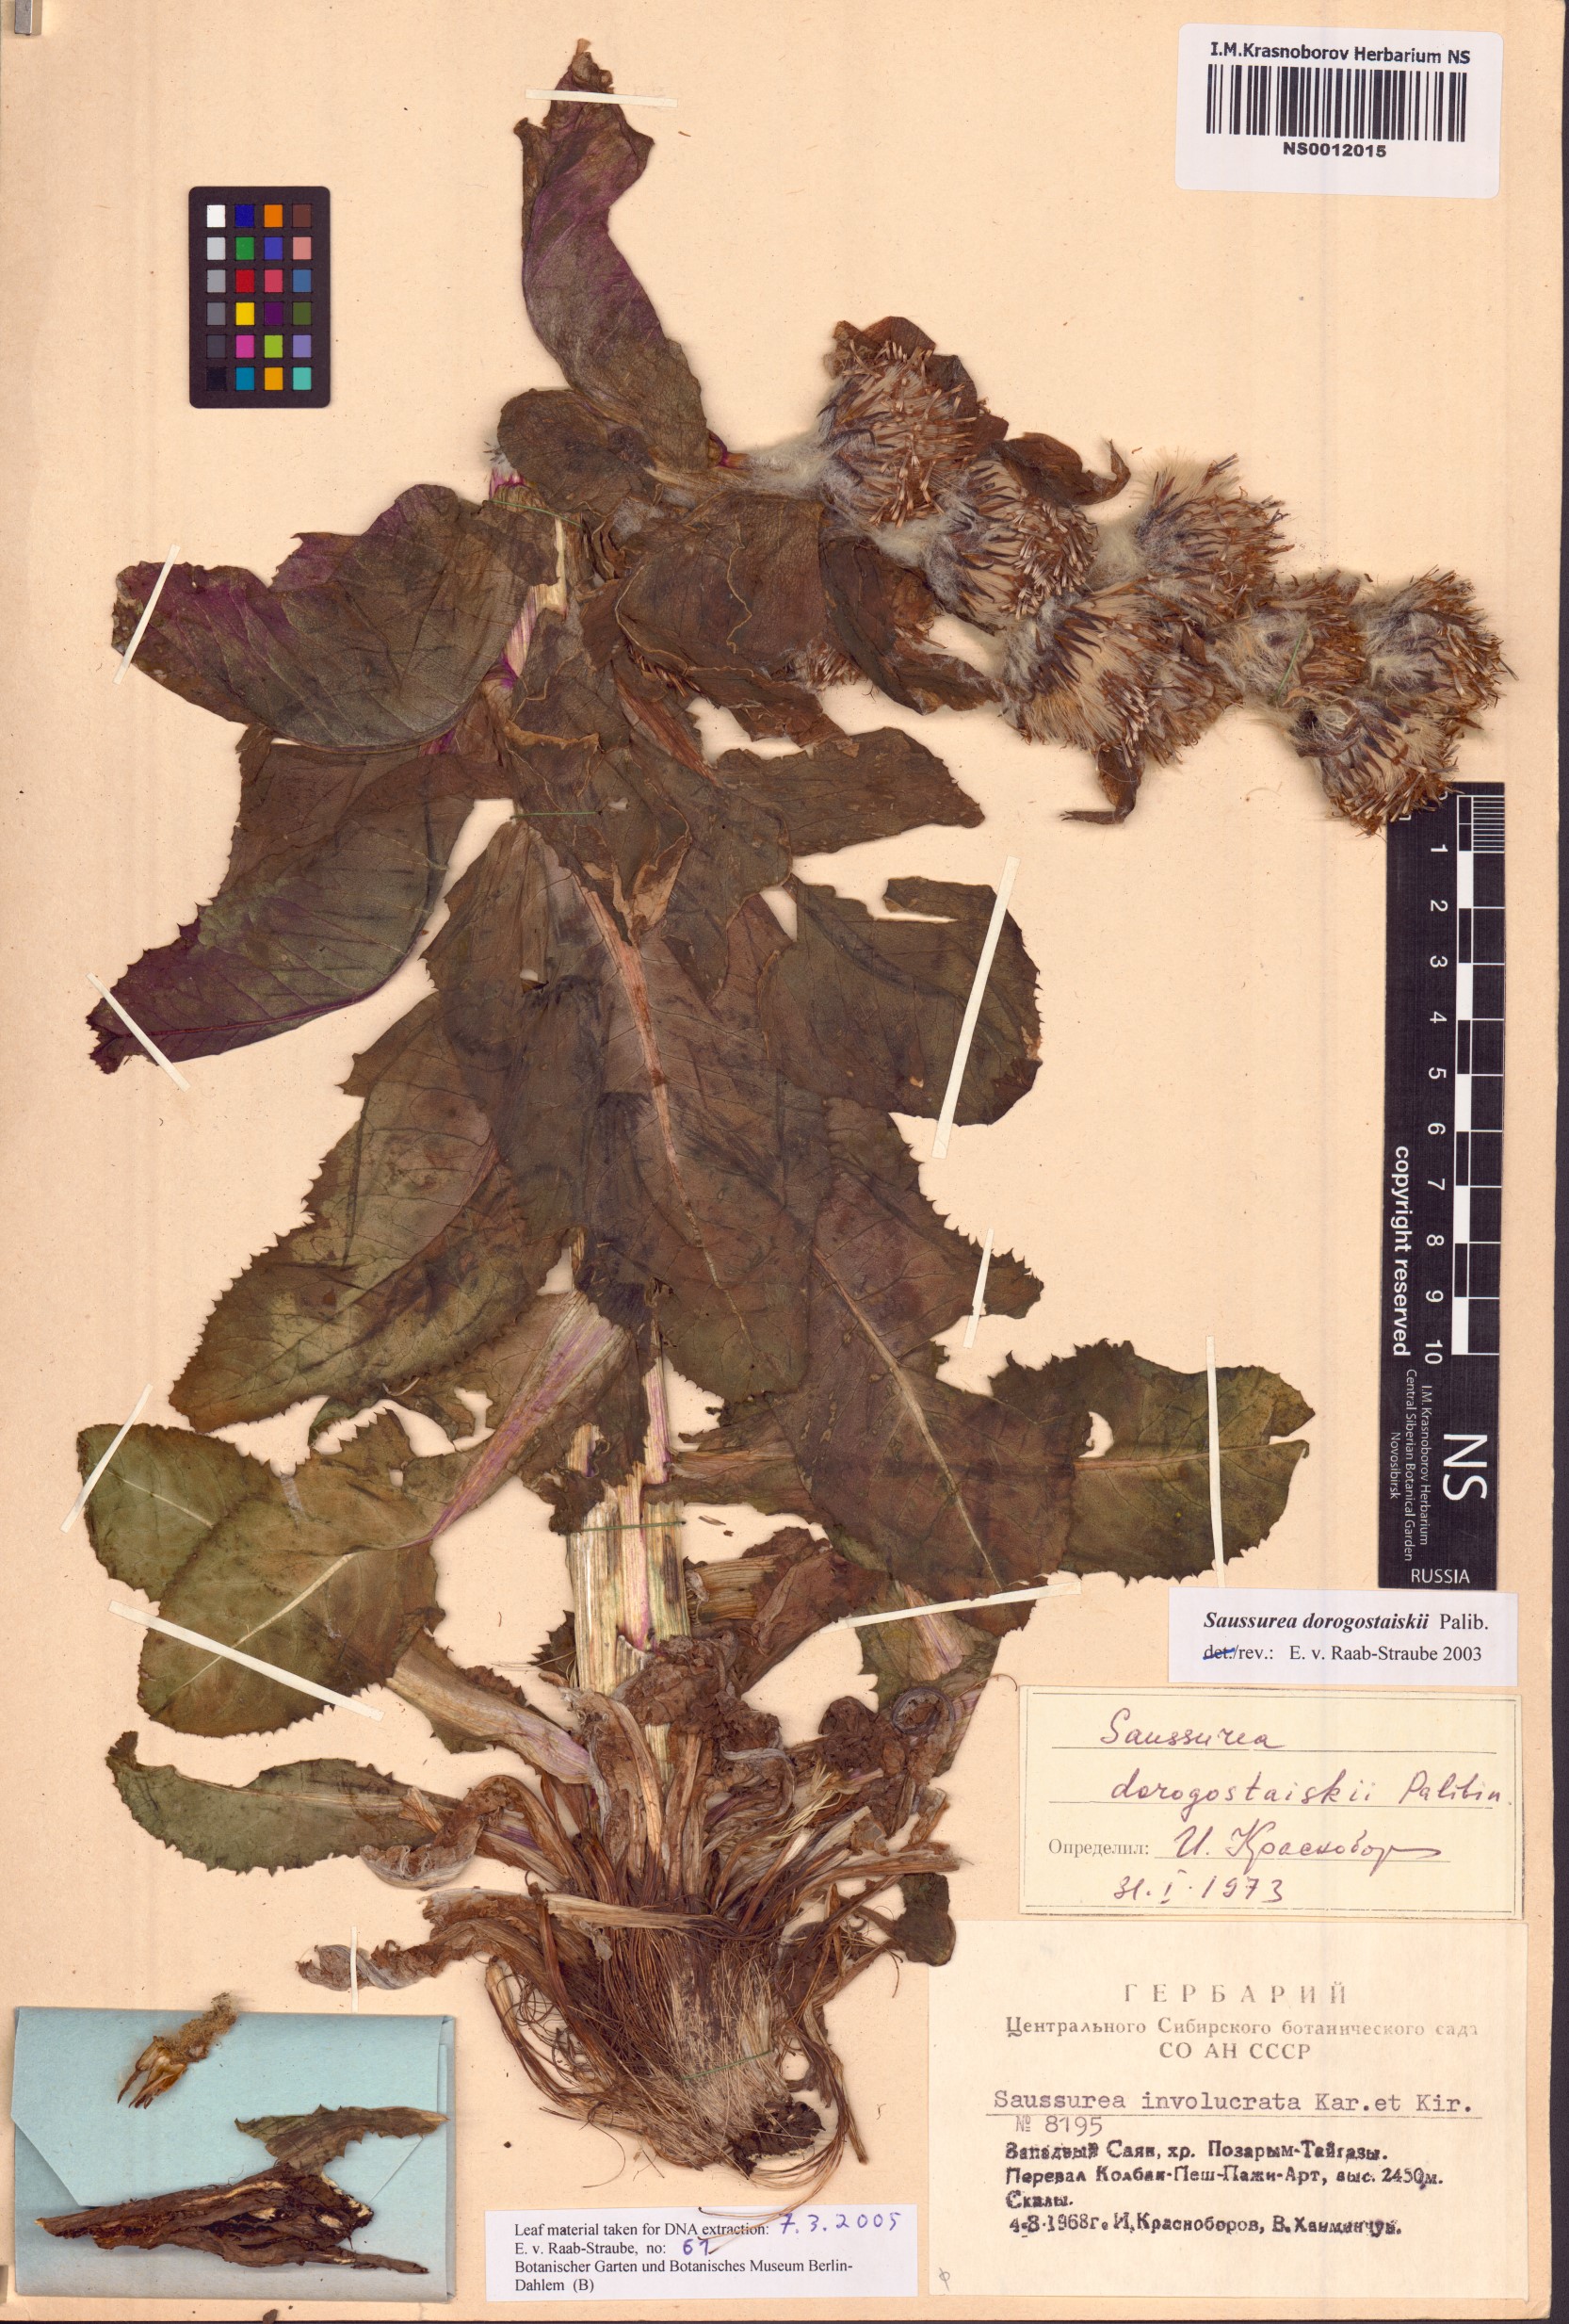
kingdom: Plantae
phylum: Tracheophyta
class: Magnoliopsida
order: Asterales
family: Asteraceae
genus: Saussurea
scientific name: Saussurea involucrata
